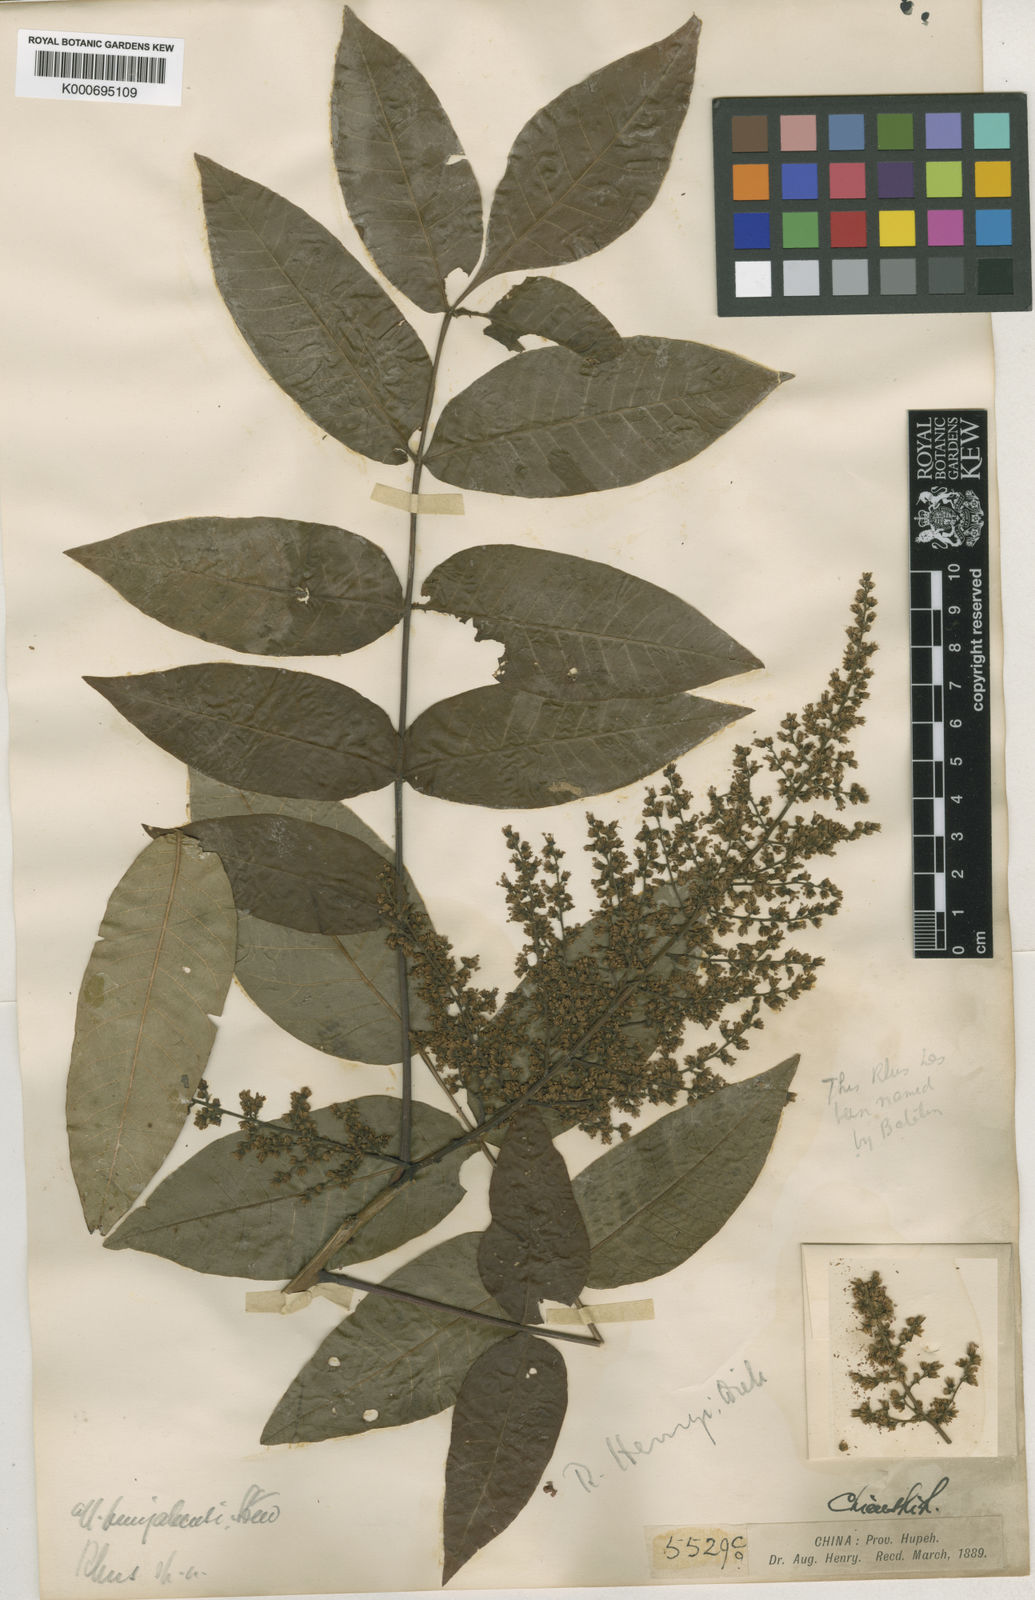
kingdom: Plantae
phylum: Tracheophyta
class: Magnoliopsida
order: Sapindales
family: Anacardiaceae
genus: Rhus
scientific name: Rhus potaninii
